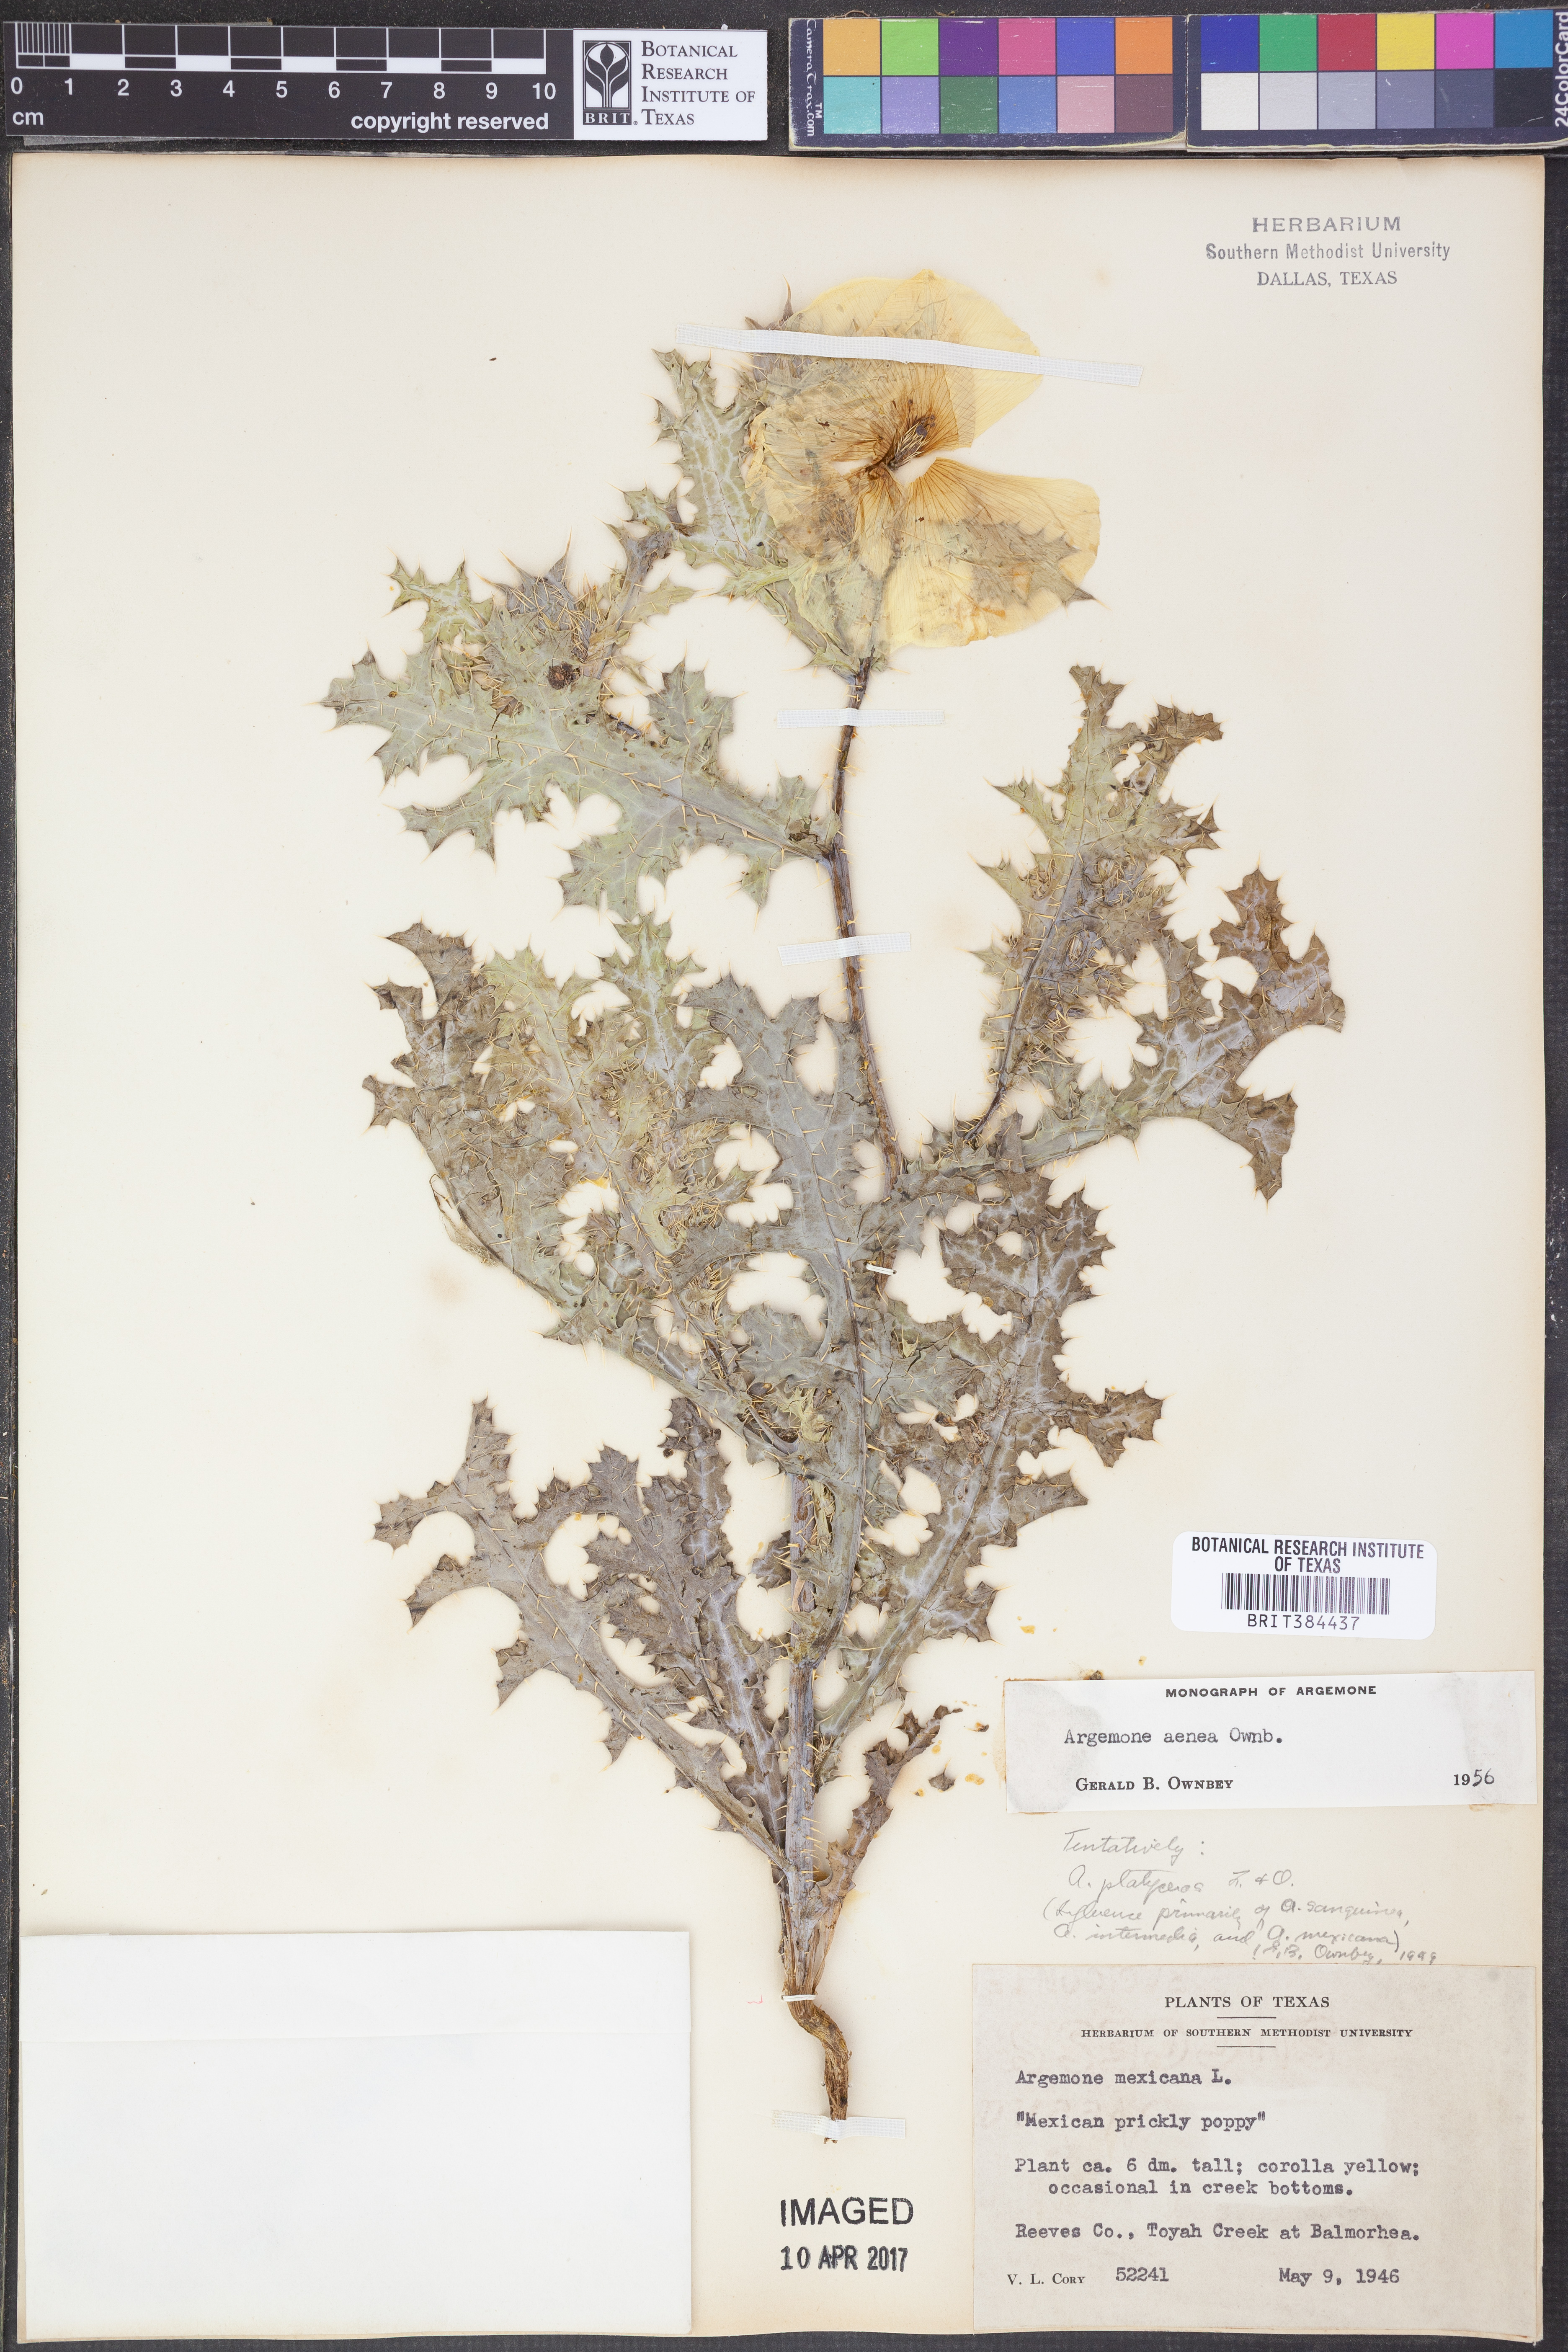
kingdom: Plantae
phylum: Tracheophyta
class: Magnoliopsida
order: Ranunculales
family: Papaveraceae
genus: Argemone
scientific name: Argemone aenea
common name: Golden prickly-poppy
